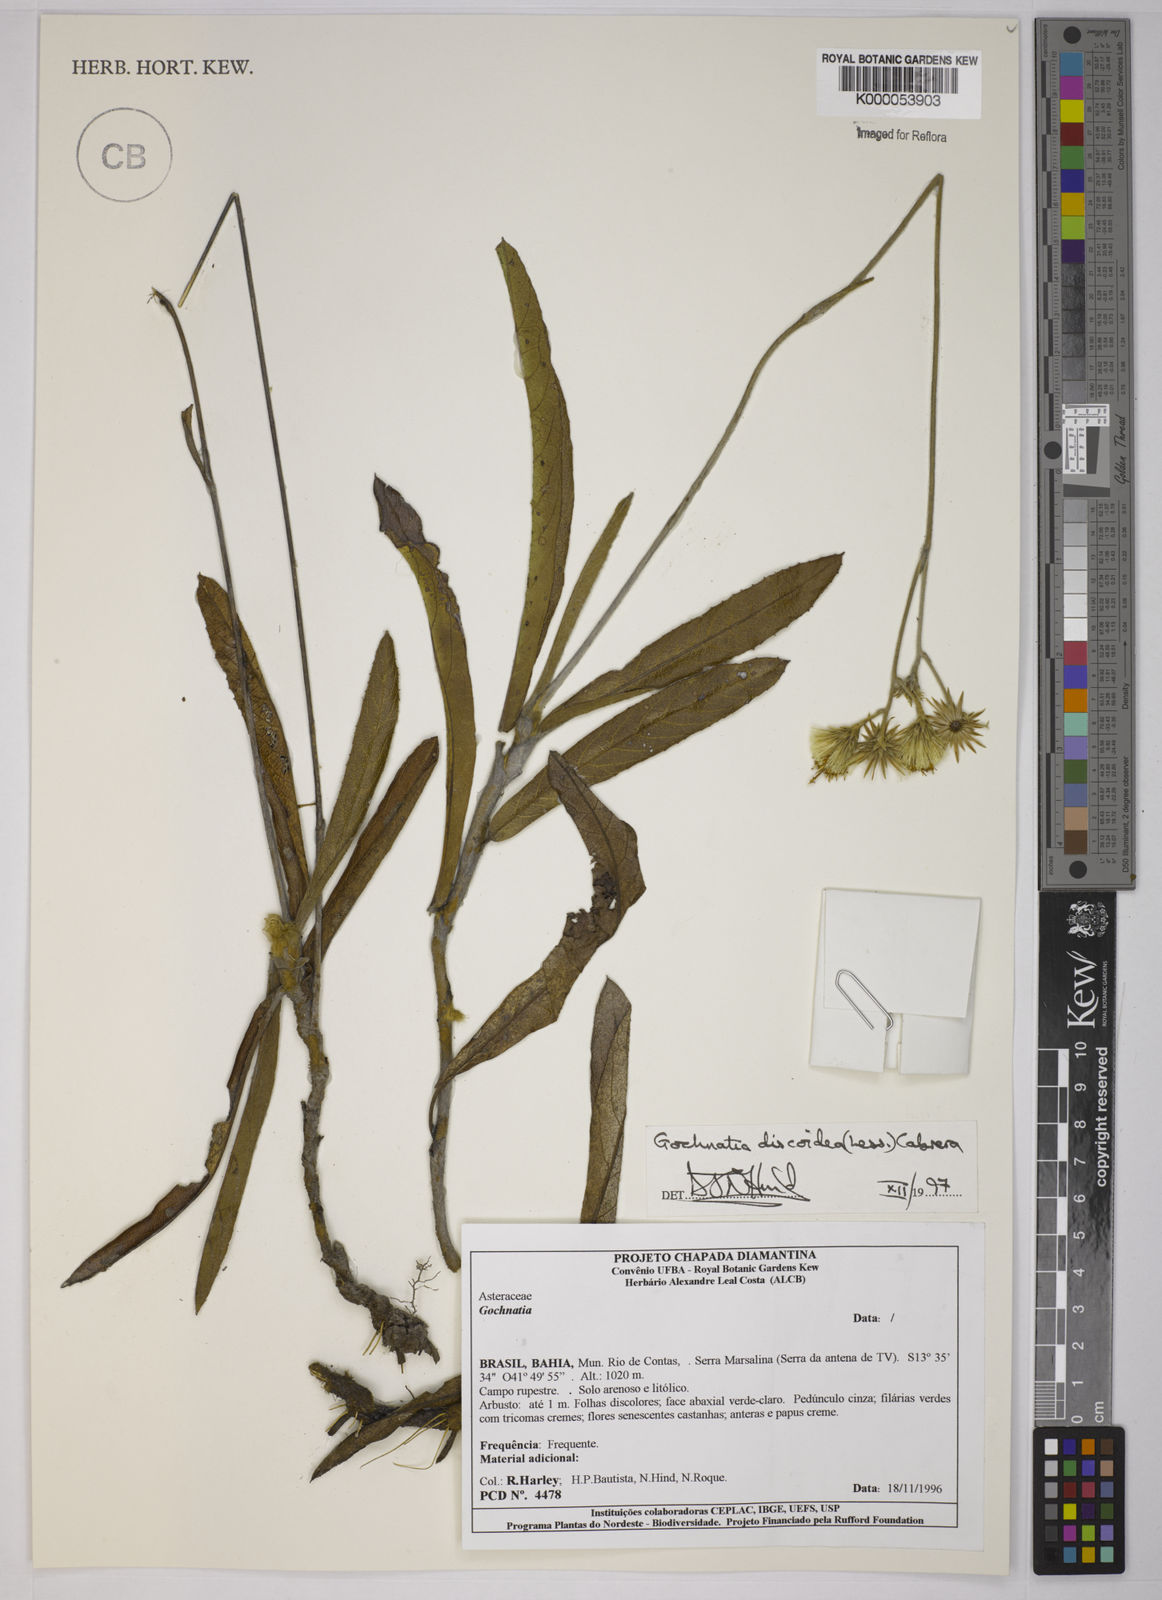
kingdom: Plantae
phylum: Tracheophyta
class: Magnoliopsida
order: Asterales
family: Asteraceae
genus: Richterago
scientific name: Richterago discoidea
